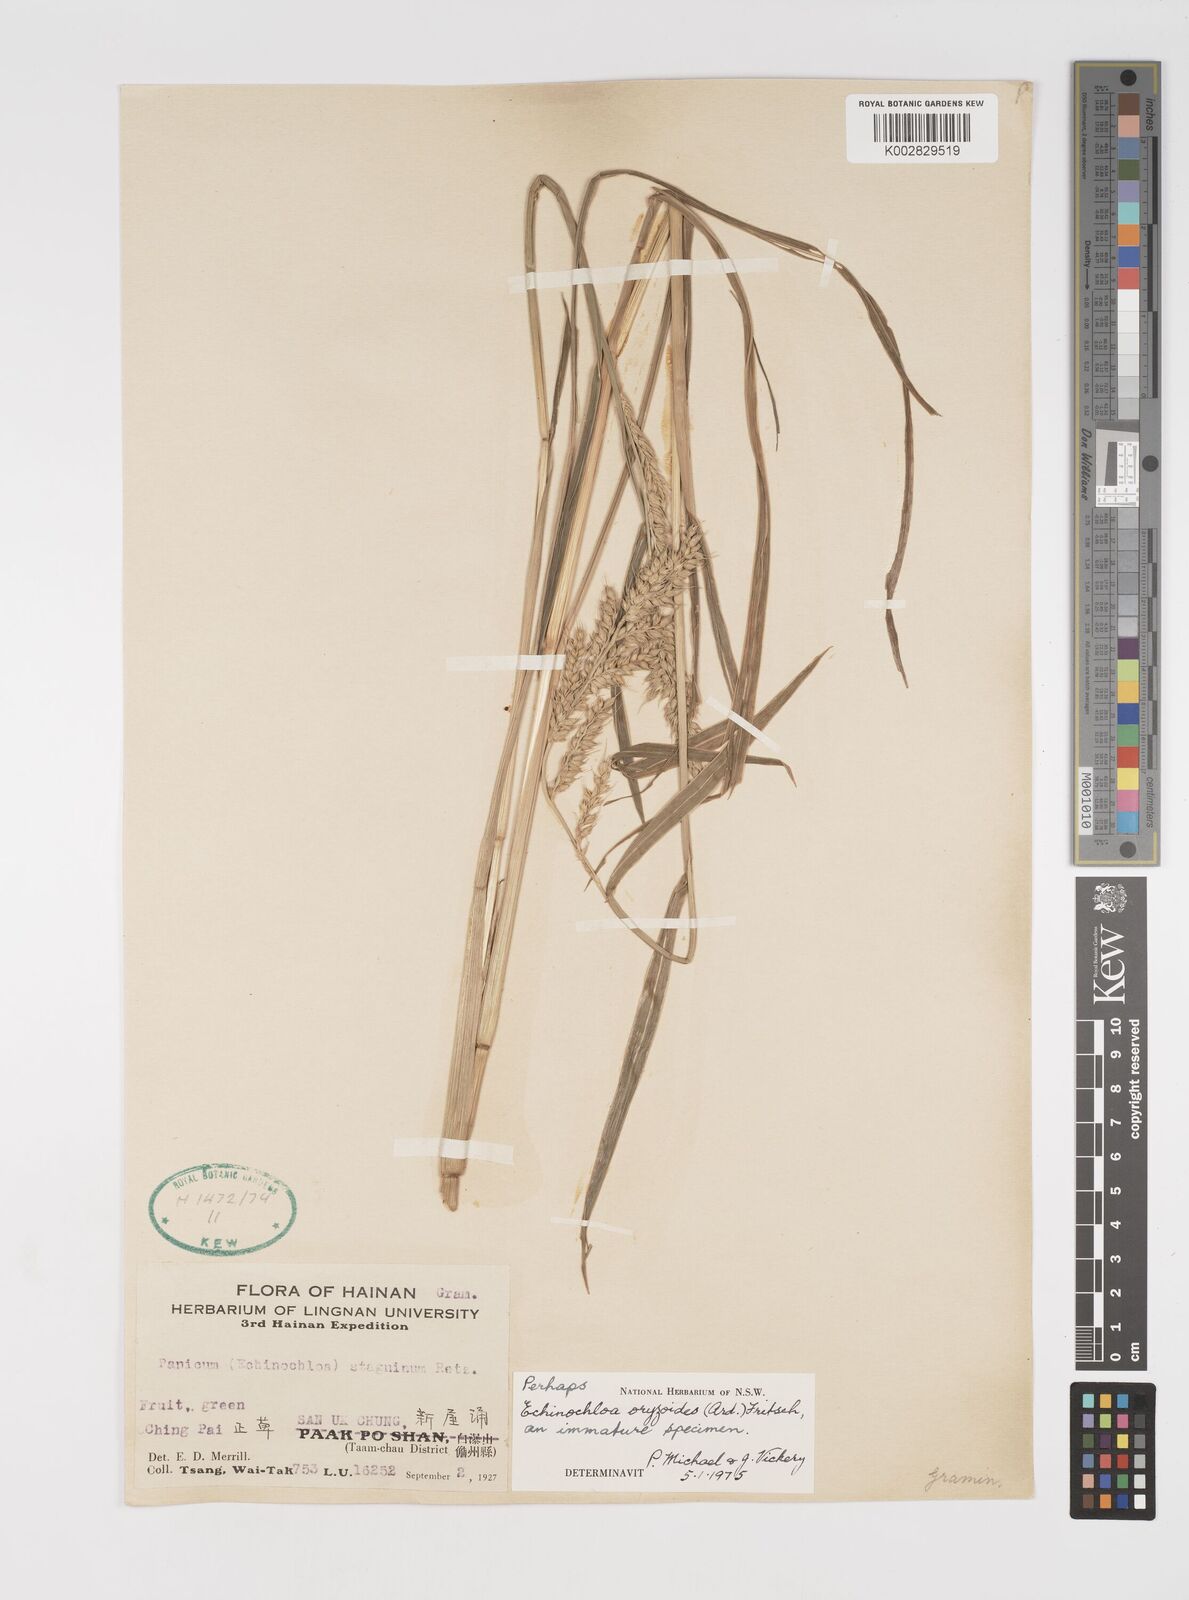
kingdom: Plantae
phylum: Tracheophyta
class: Liliopsida
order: Poales
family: Poaceae
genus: Echinochloa
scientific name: Echinochloa oryzoides
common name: Early water grass
